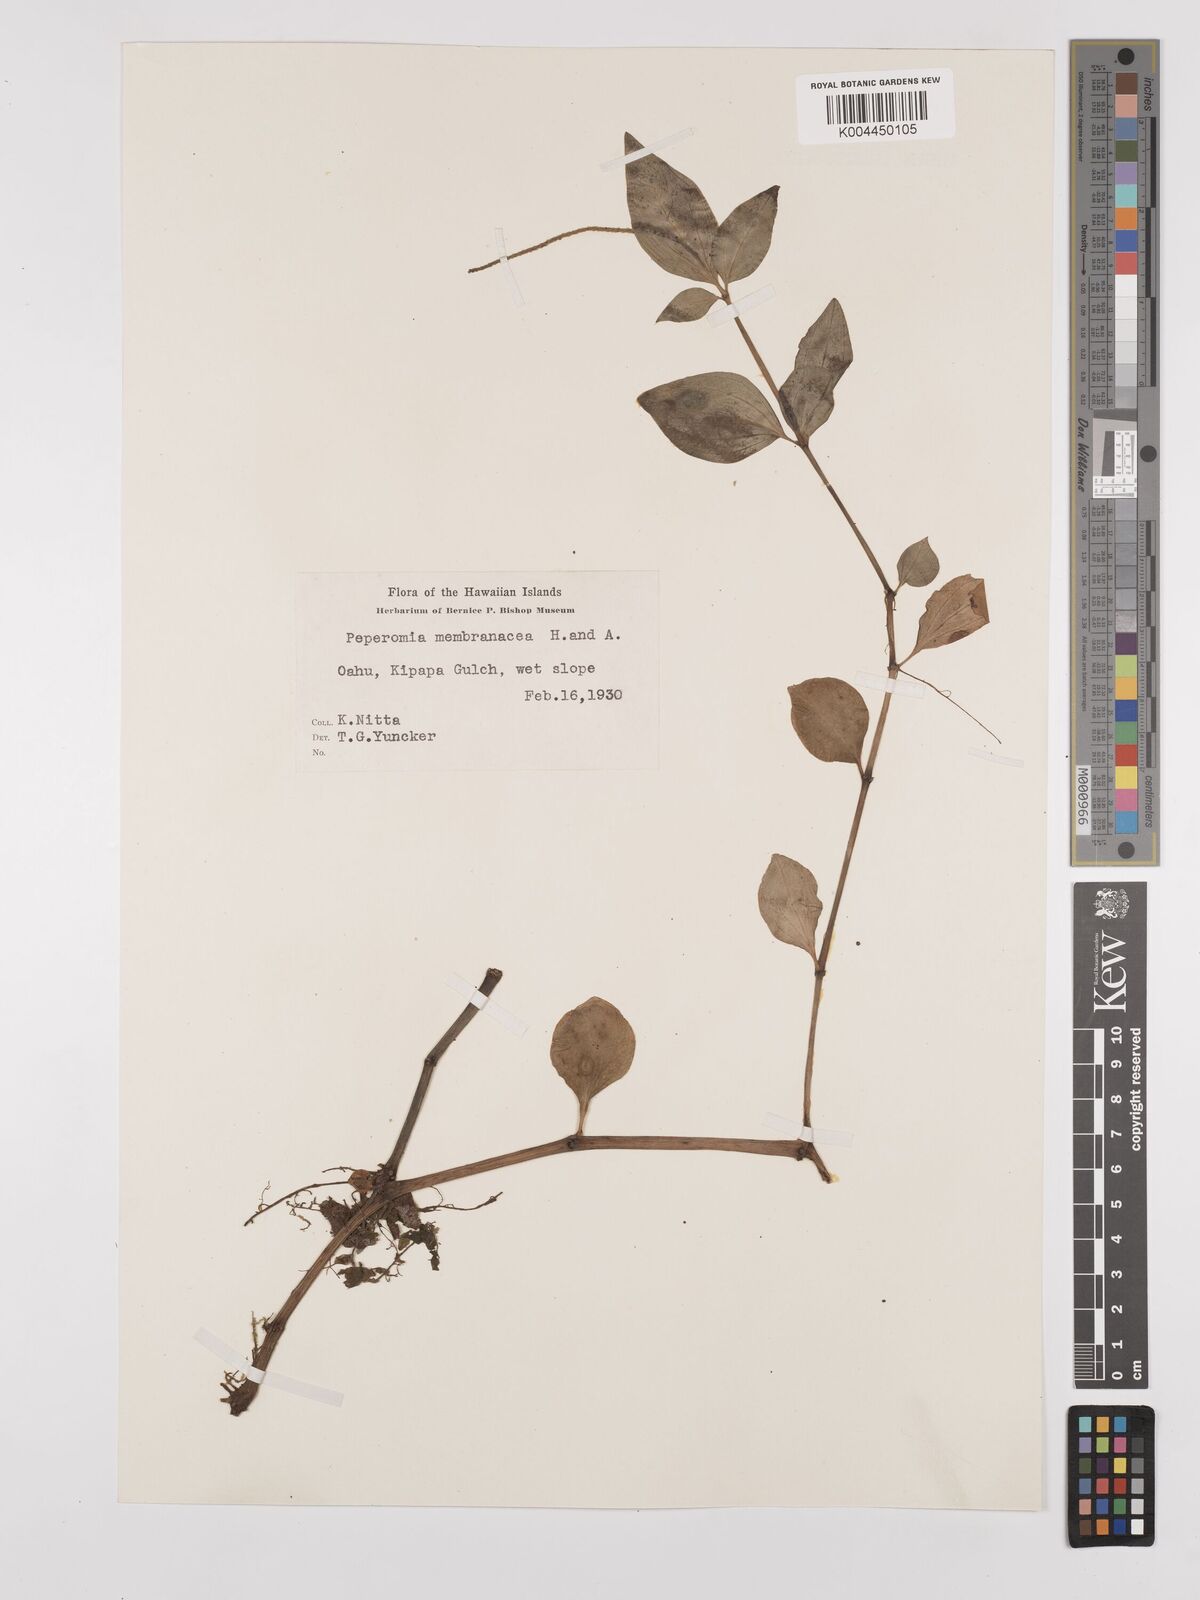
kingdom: Plantae
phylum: Tracheophyta
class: Magnoliopsida
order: Piperales
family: Piperaceae
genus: Peperomia
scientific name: Peperomia membranacea
